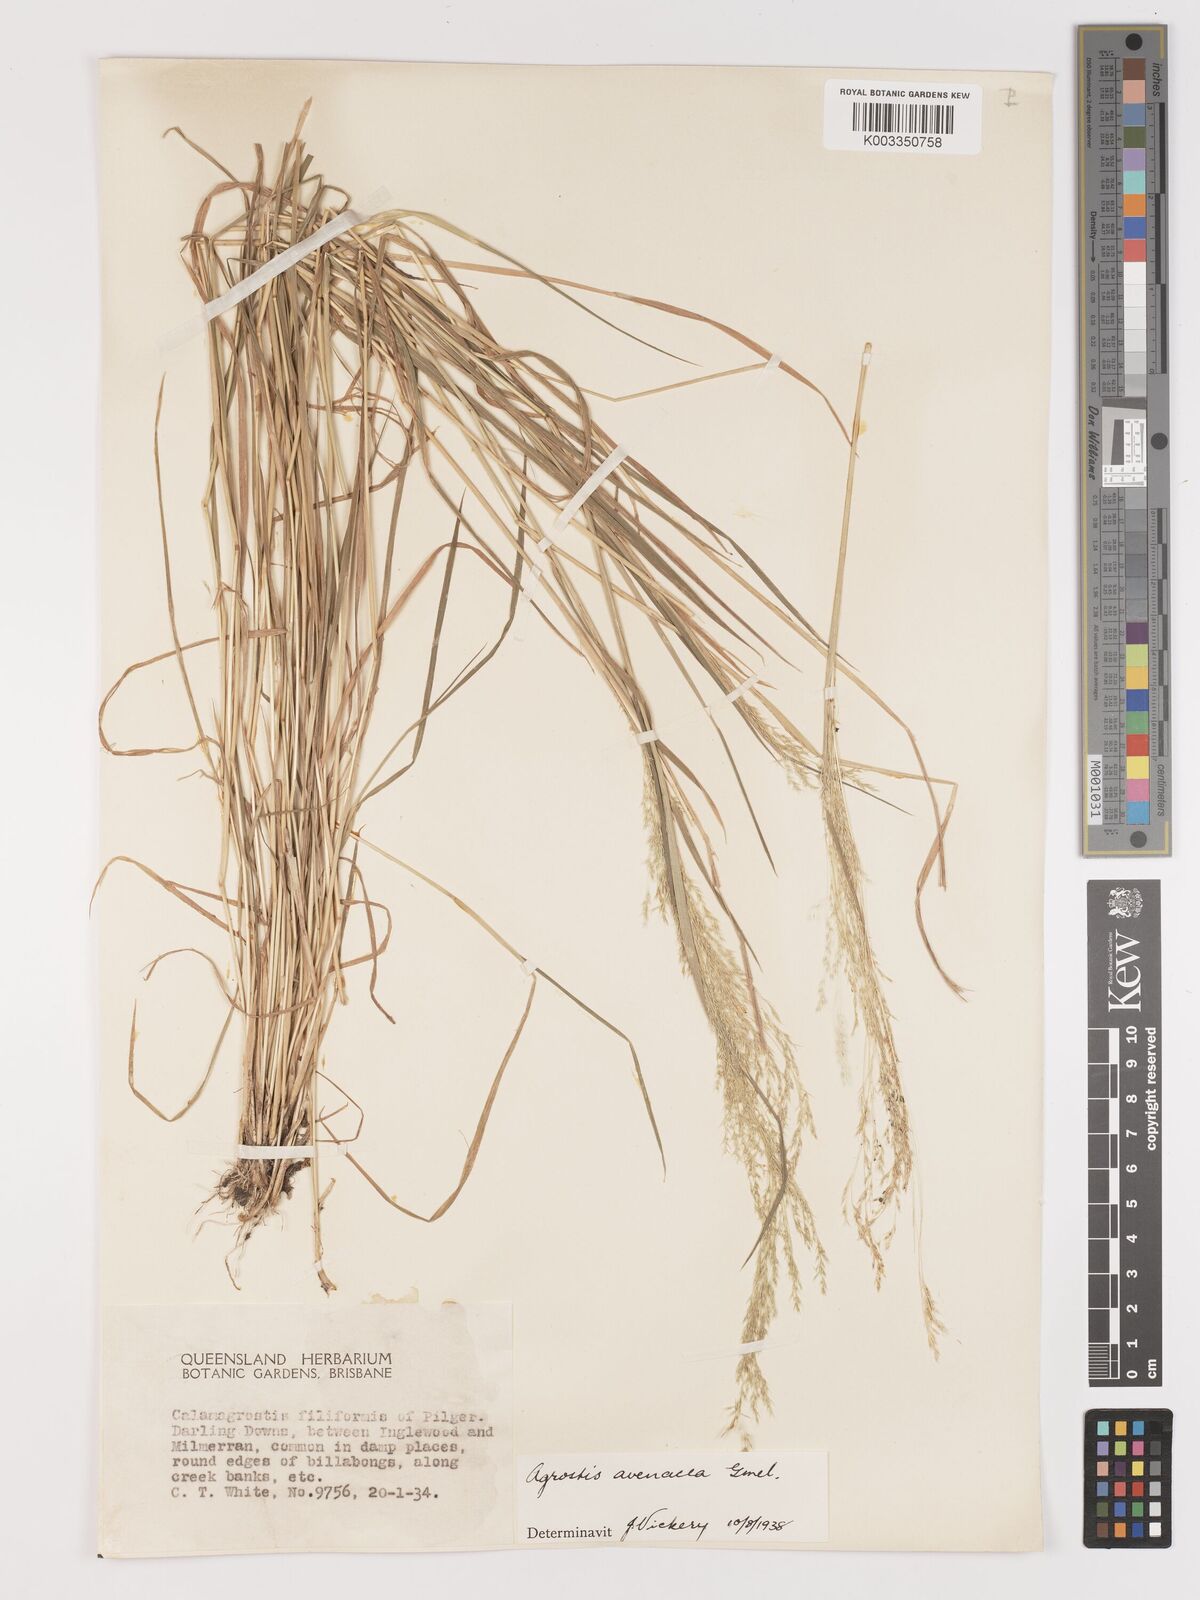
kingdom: Plantae
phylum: Tracheophyta
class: Liliopsida
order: Poales
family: Poaceae
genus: Lachnagrostis
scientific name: Lachnagrostis filiformis
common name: Bentgrass
